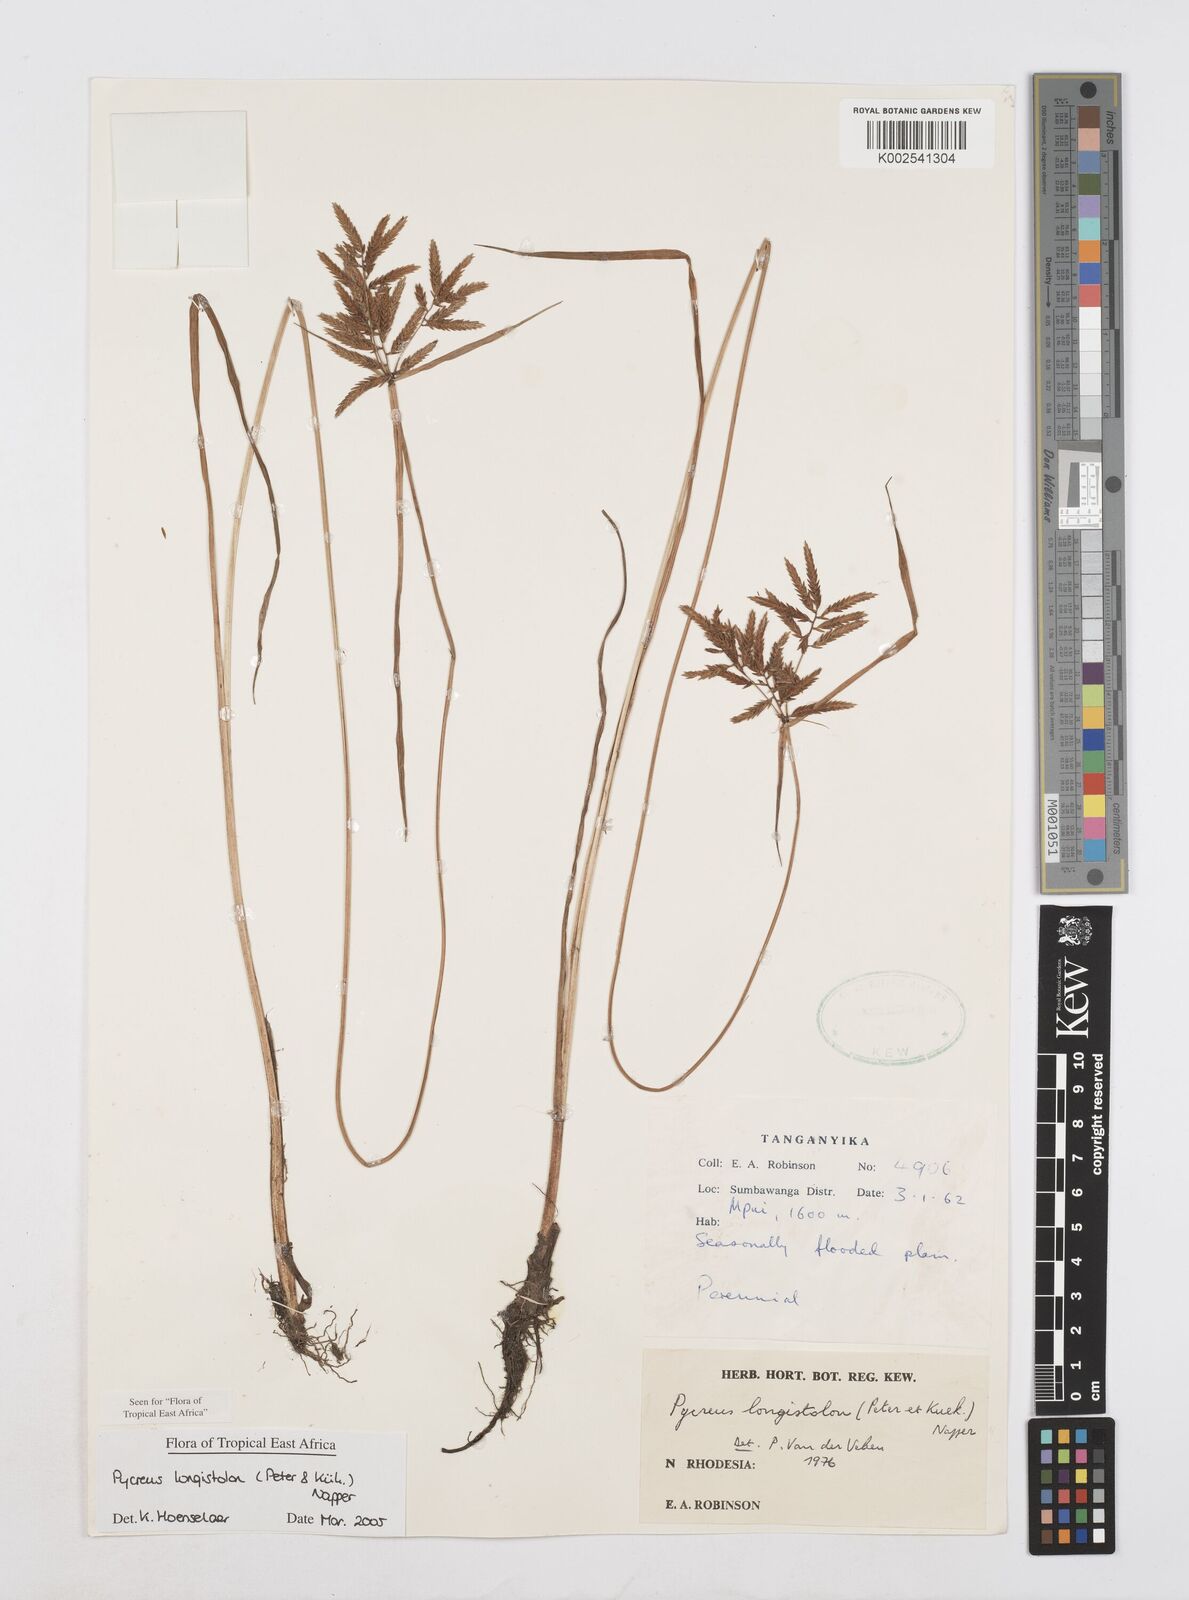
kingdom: Plantae
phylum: Tracheophyta
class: Liliopsida
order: Poales
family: Cyperaceae
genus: Cyperus
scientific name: Cyperus chrysanthus
